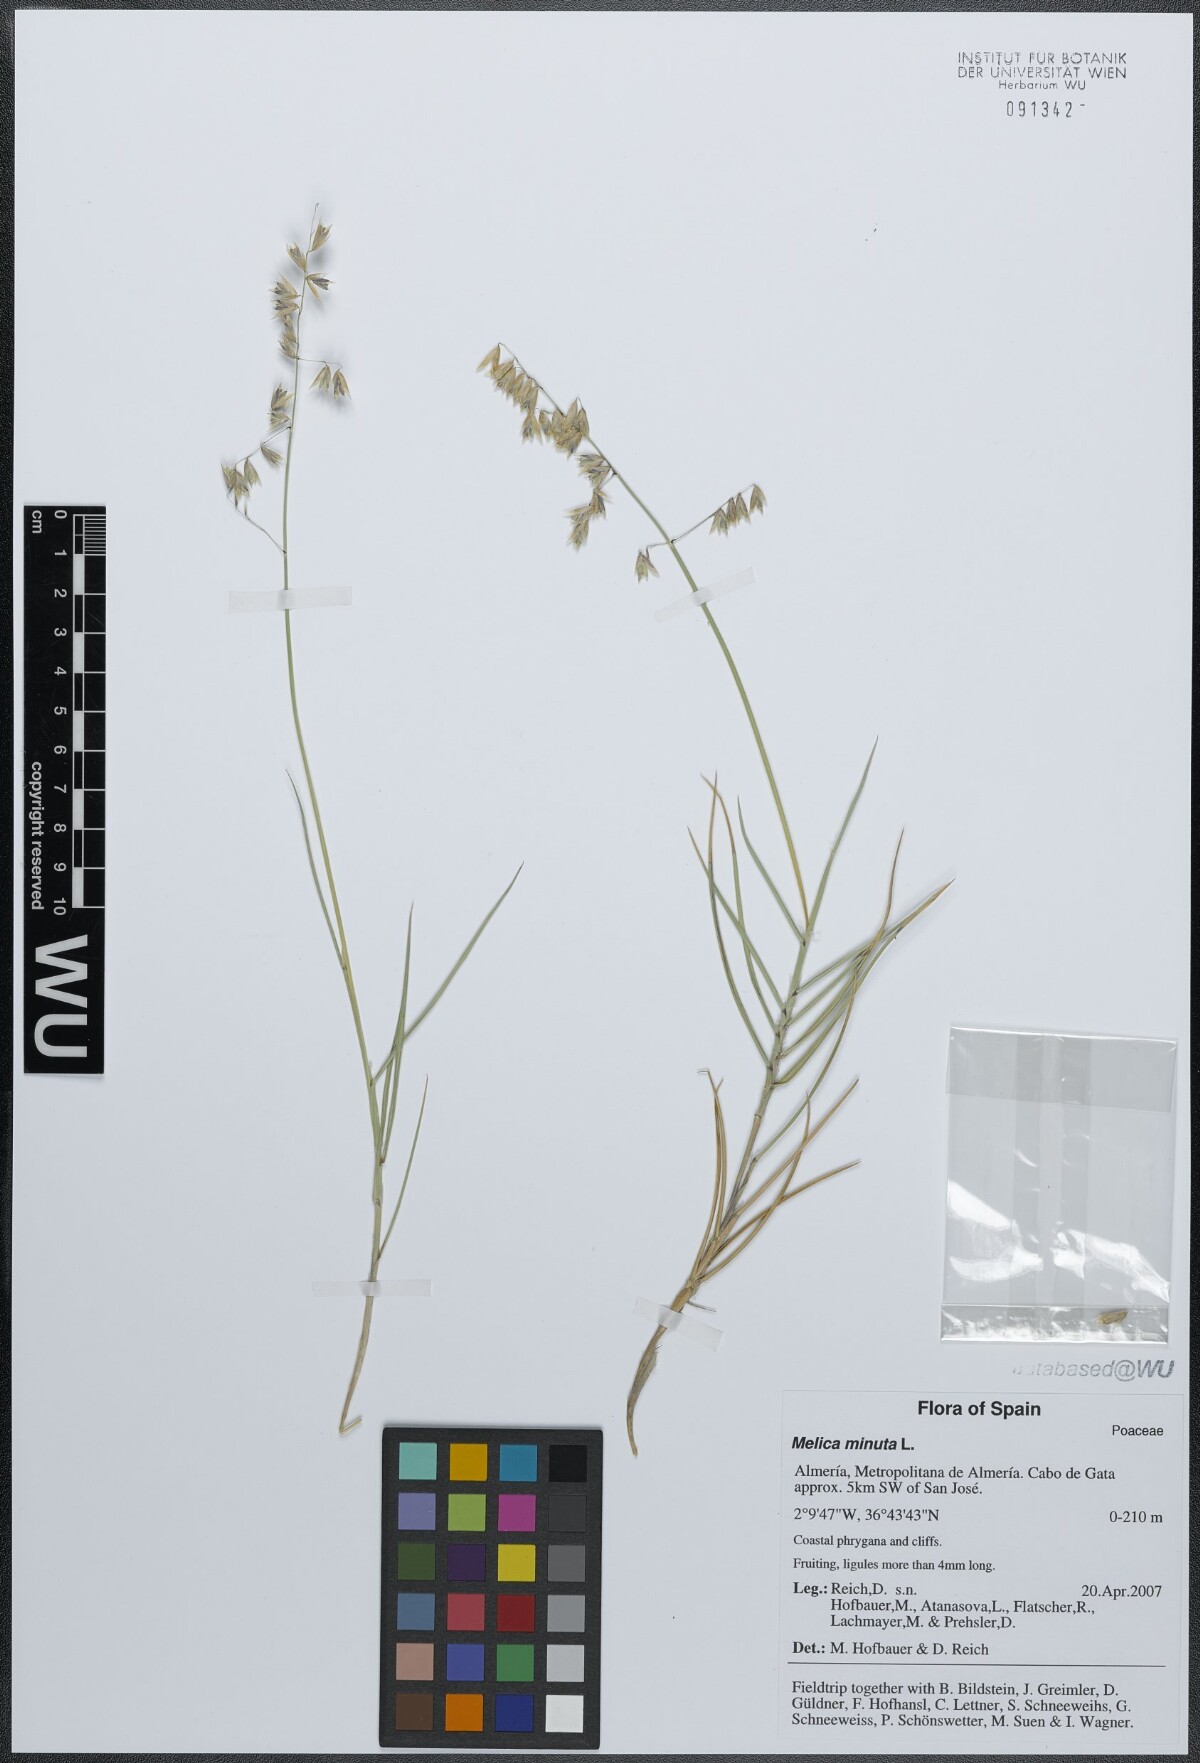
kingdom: Plantae
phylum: Tracheophyta
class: Liliopsida
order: Poales
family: Poaceae
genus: Melica
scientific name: Melica minuta
